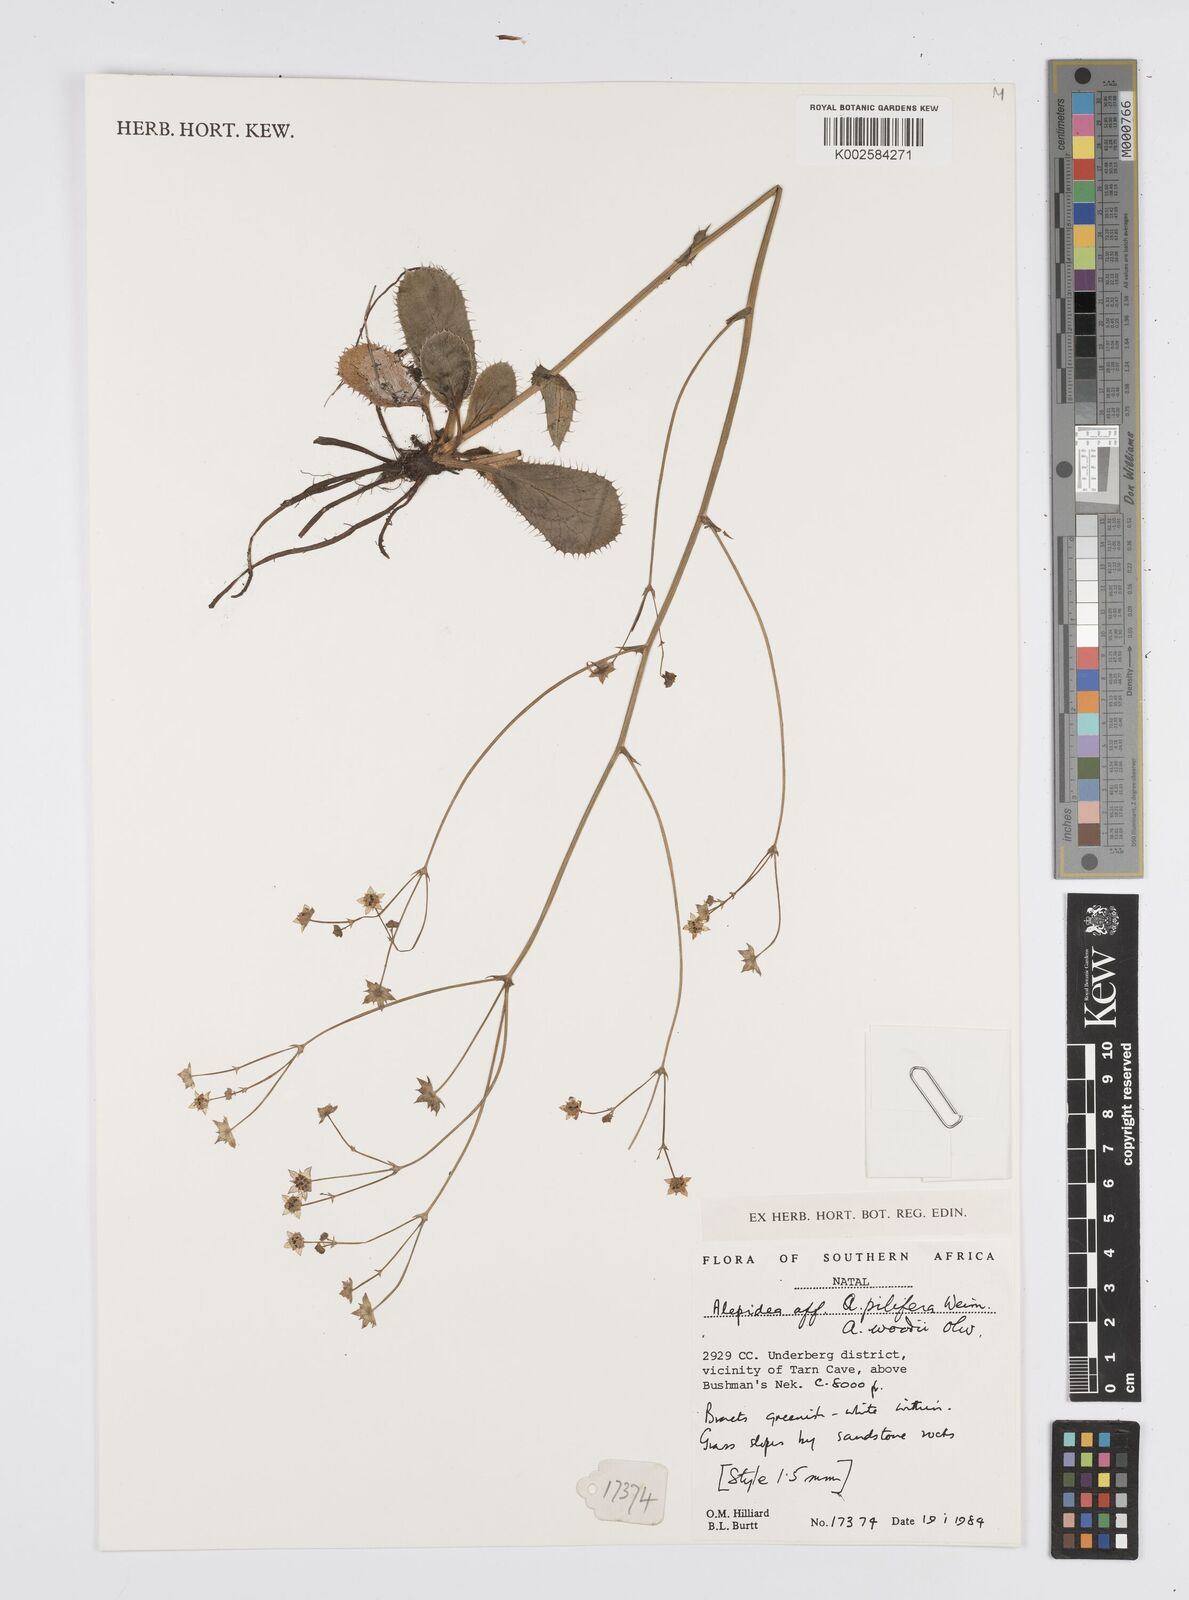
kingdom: Plantae
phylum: Tracheophyta
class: Magnoliopsida
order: Apiales
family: Apiaceae
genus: Alepidea
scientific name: Alepidea
